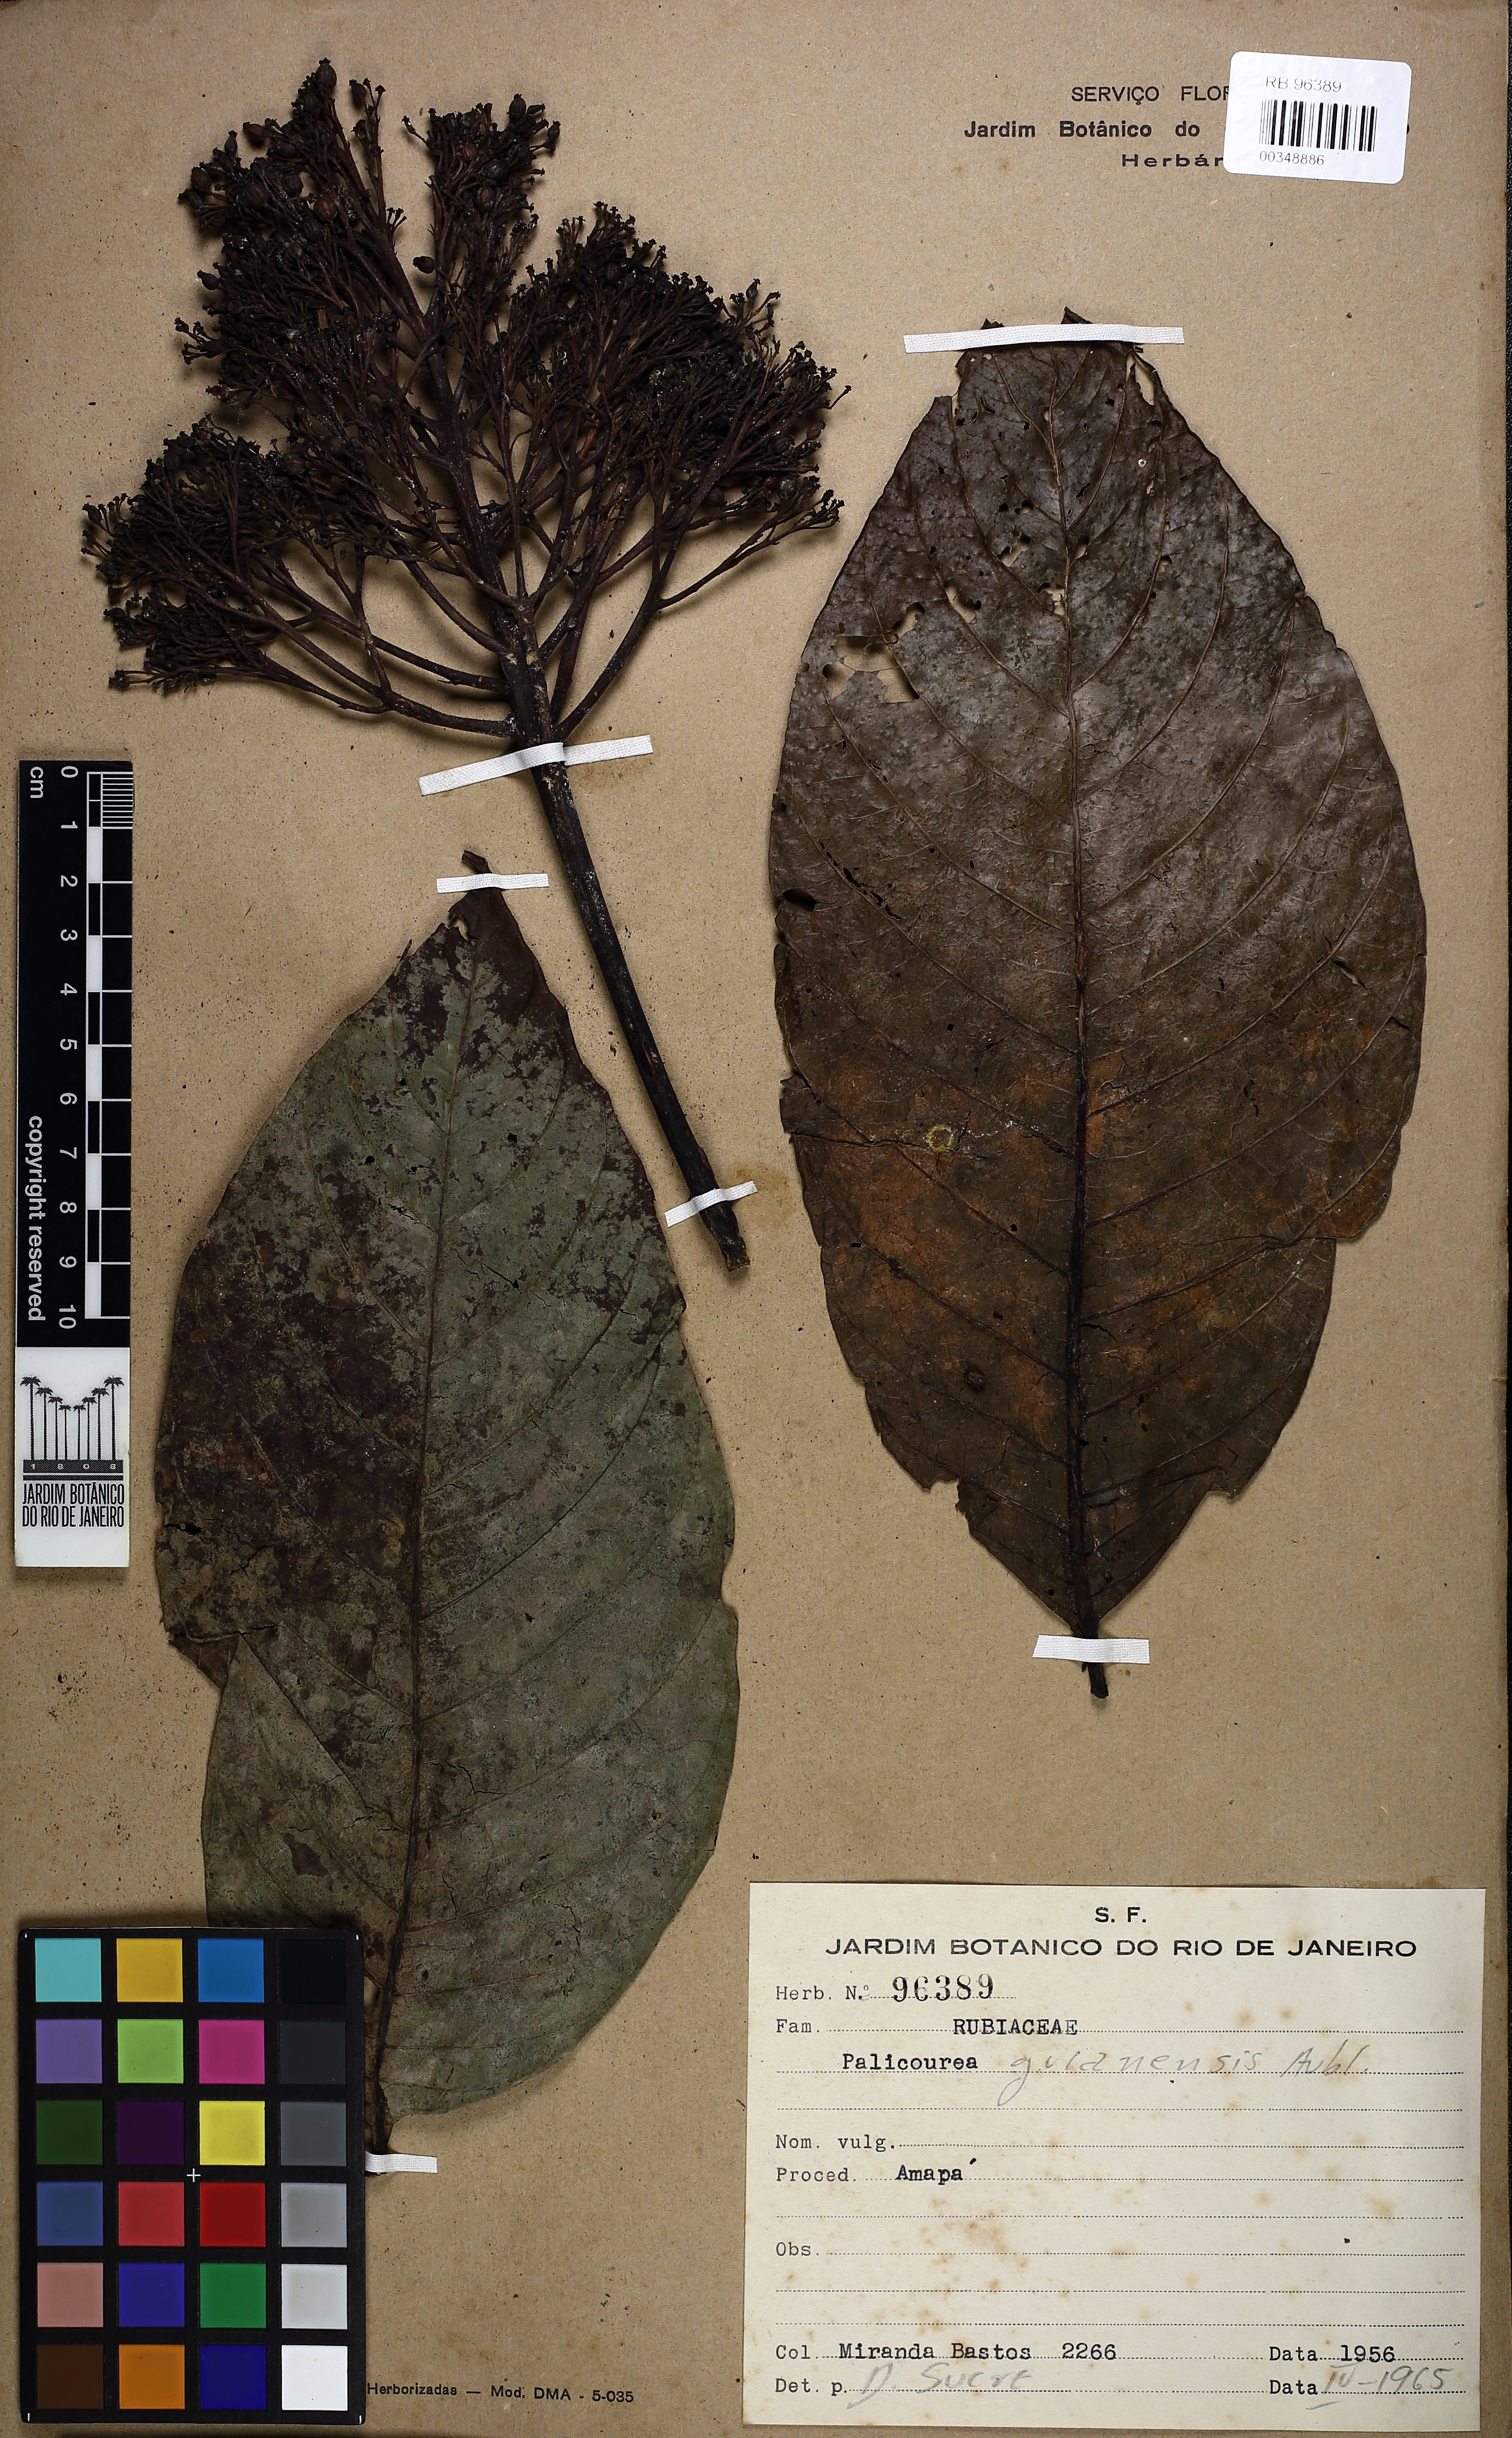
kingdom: Plantae
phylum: Tracheophyta
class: Magnoliopsida
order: Gentianales
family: Rubiaceae
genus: Palicourea
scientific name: Palicourea guianensis
